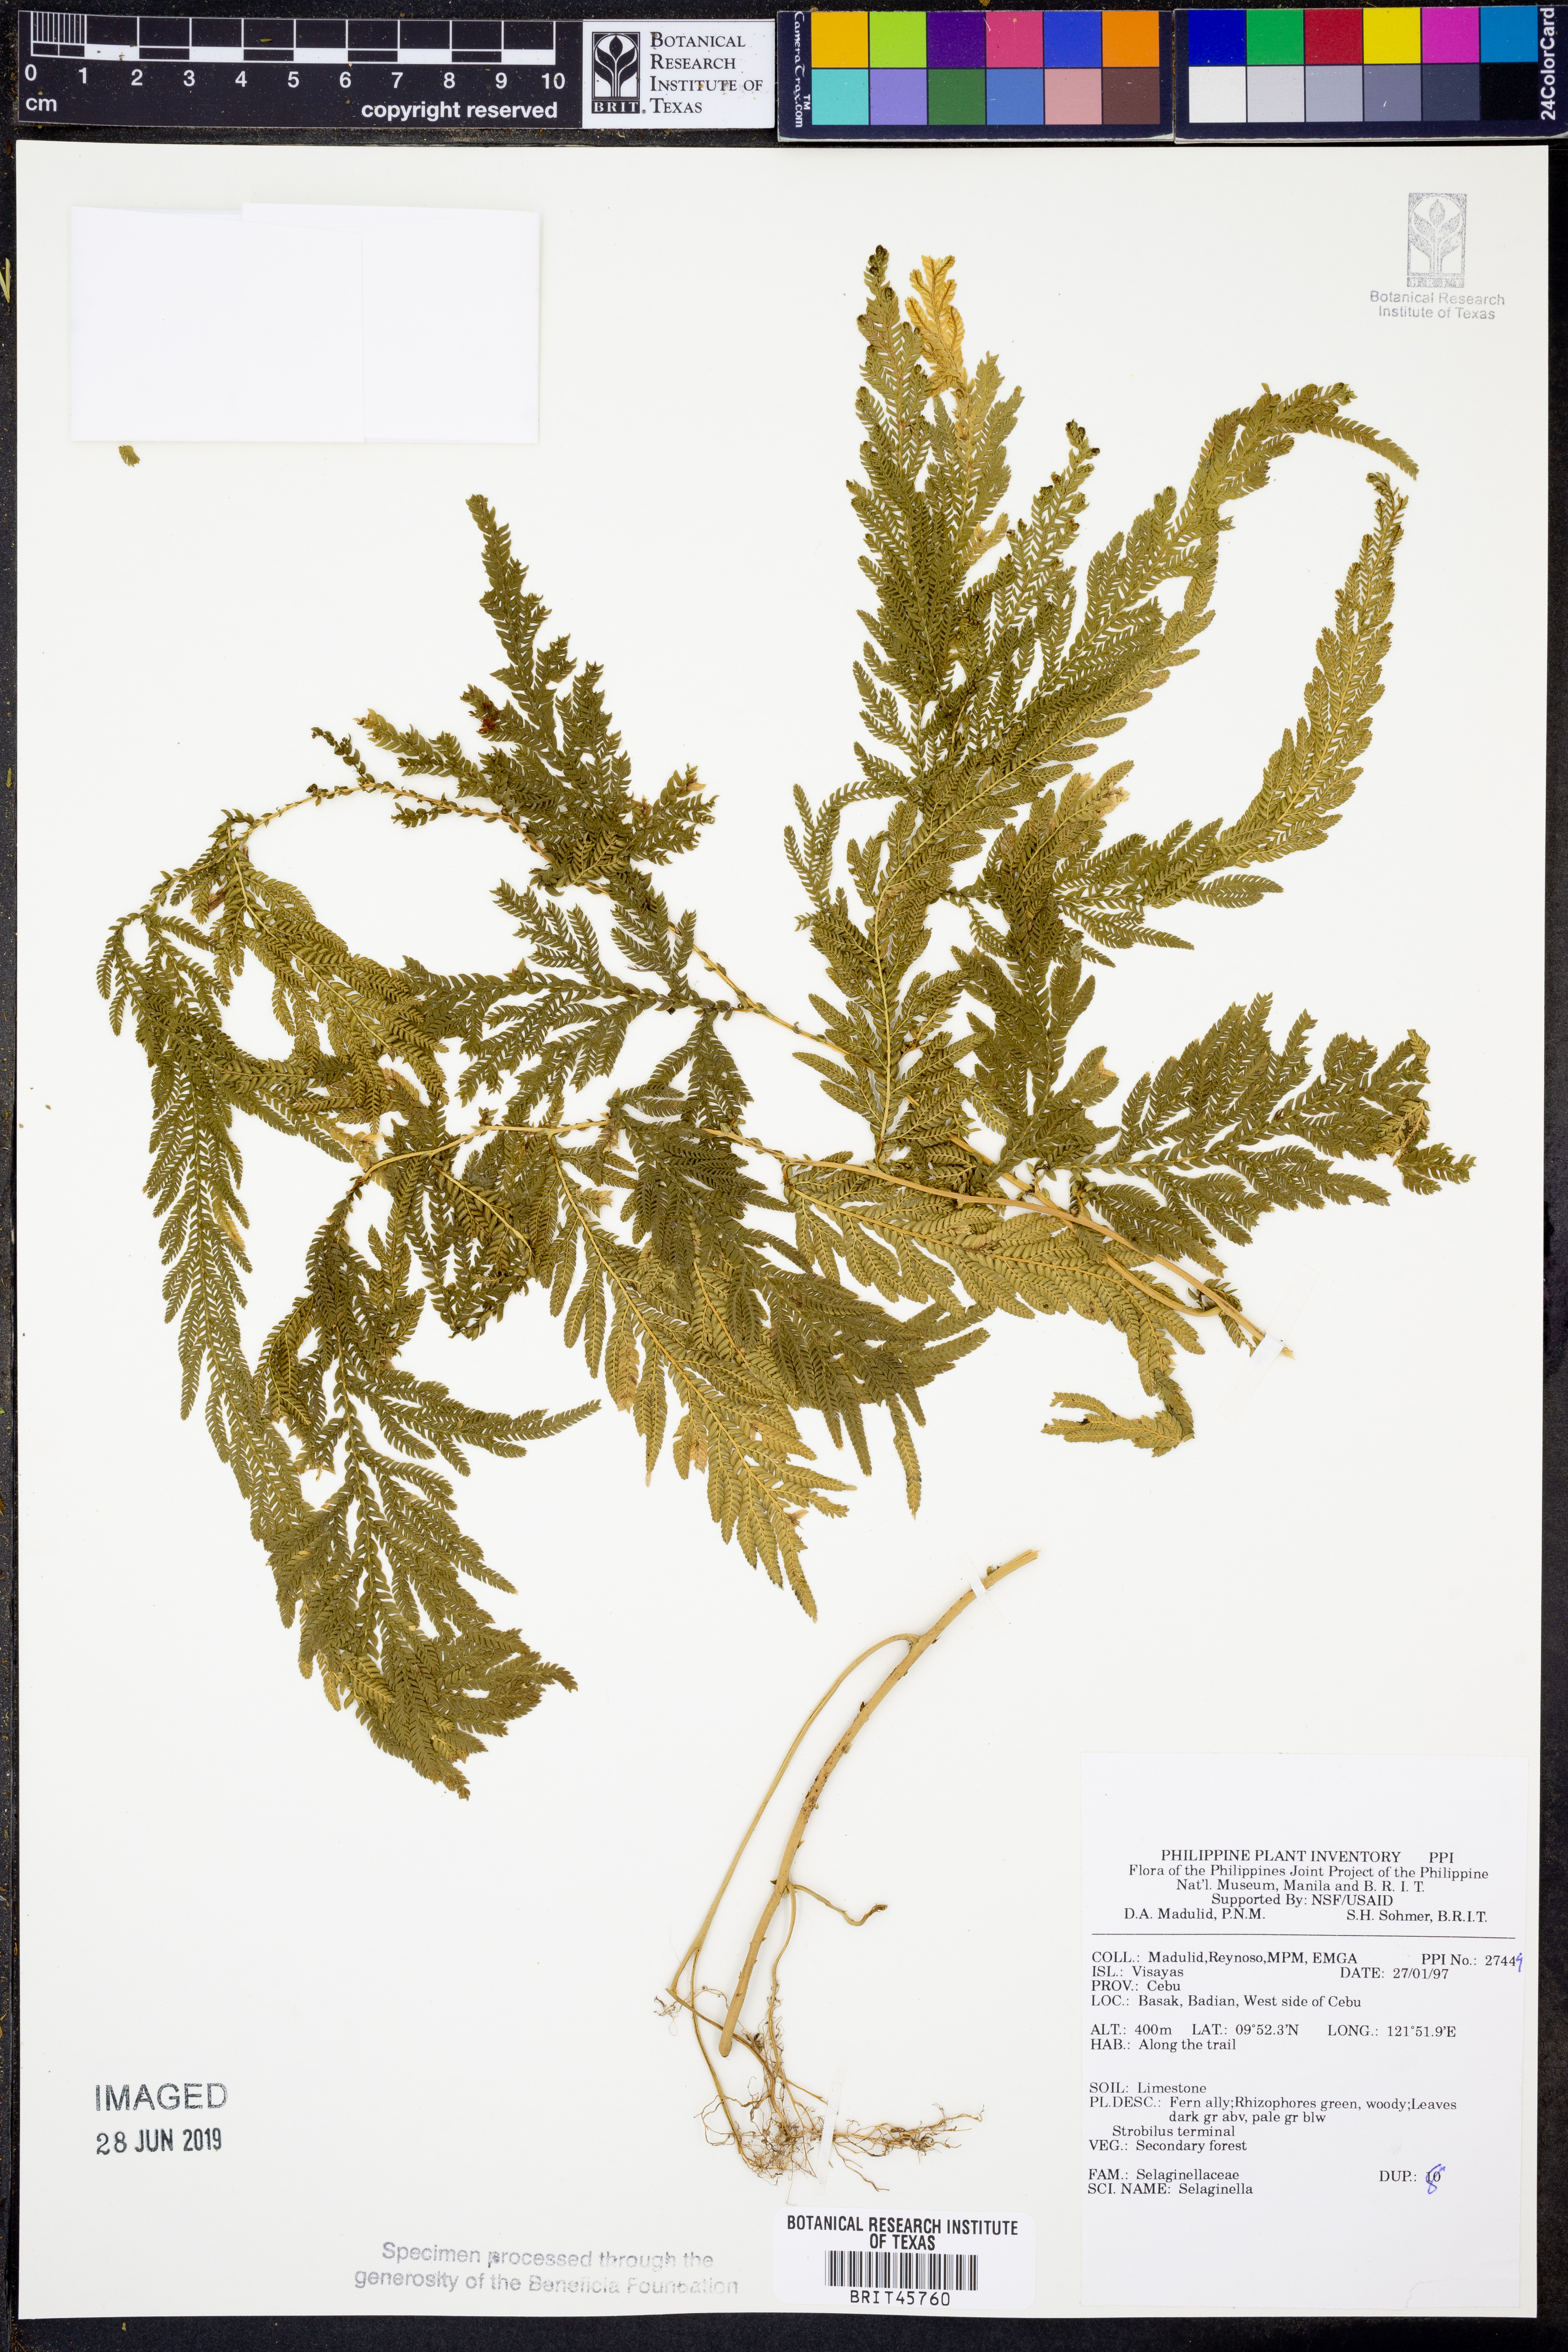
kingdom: Plantae
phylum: Tracheophyta
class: Lycopodiopsida
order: Selaginellales
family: Selaginellaceae
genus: Selaginella
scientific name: Selaginella
